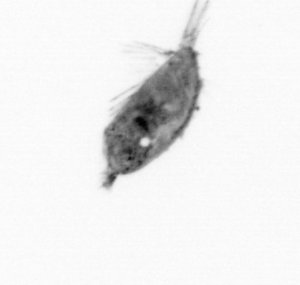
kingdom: Animalia
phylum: Arthropoda
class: Maxillopoda
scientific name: Maxillopoda
